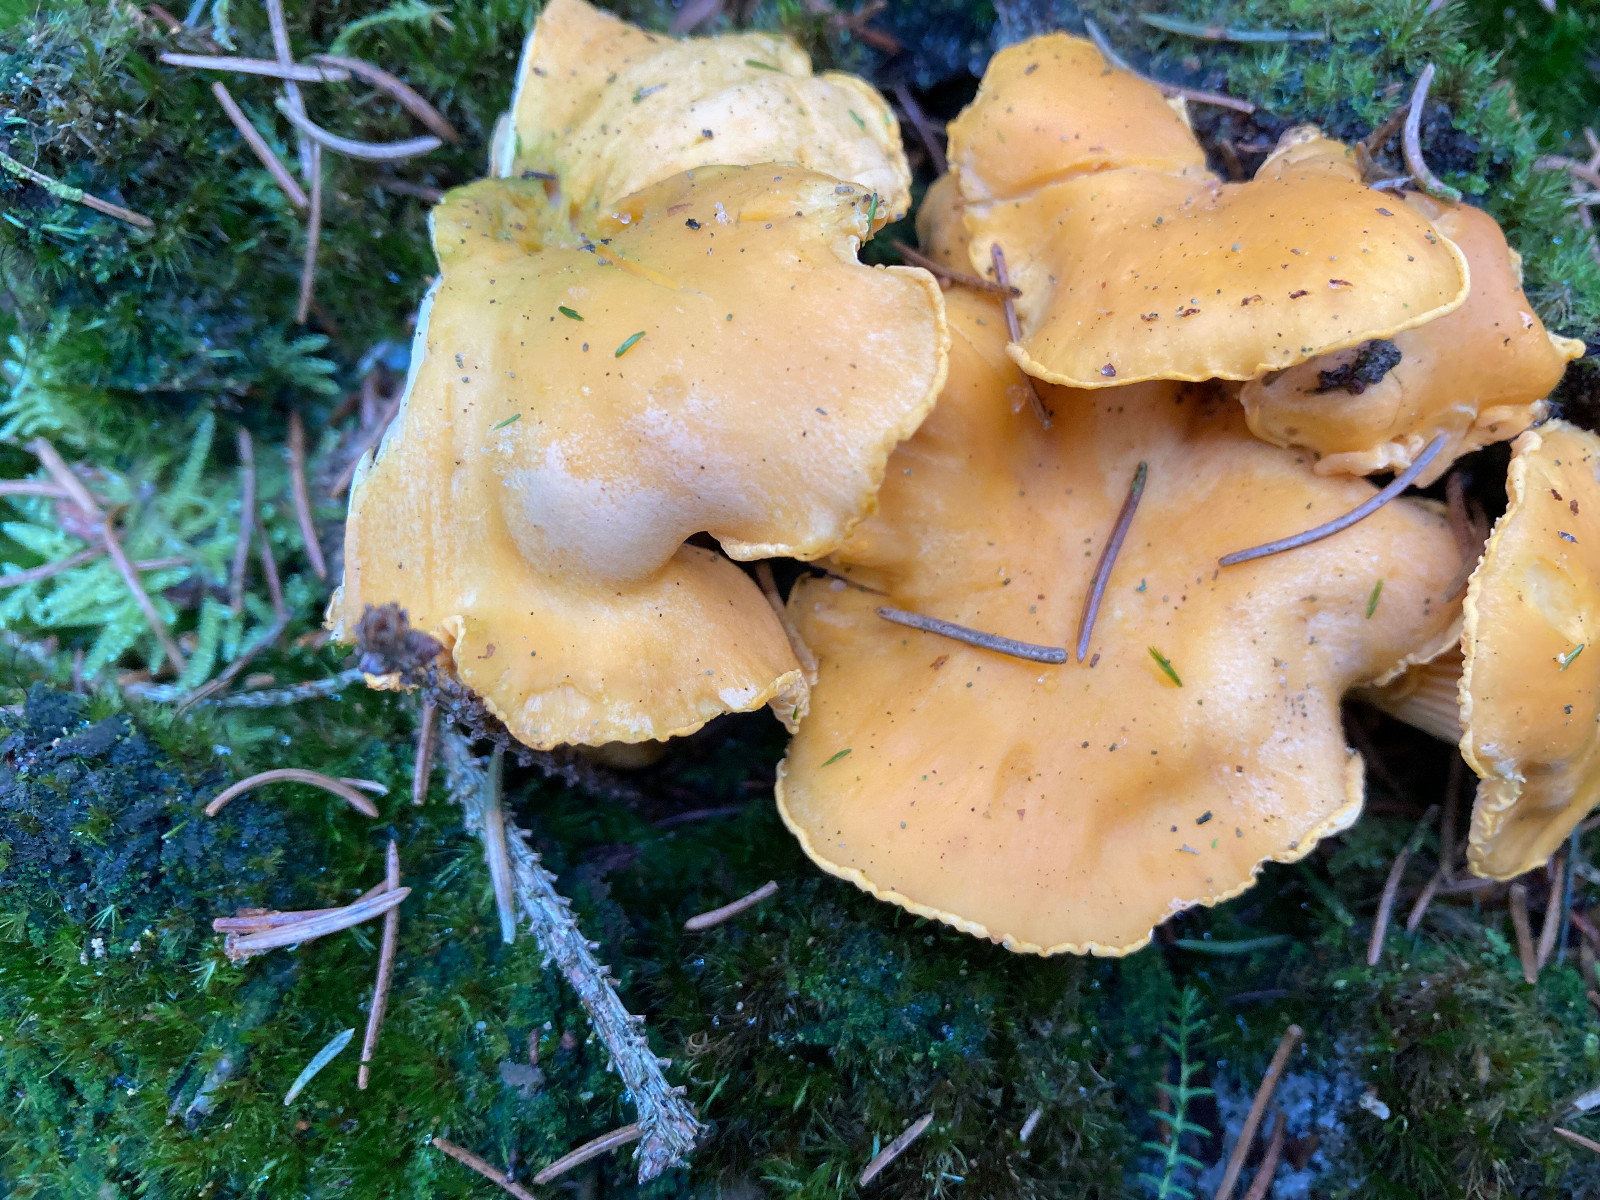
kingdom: Fungi
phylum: Basidiomycota
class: Agaricomycetes
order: Cantharellales
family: Hydnaceae
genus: Cantharellus
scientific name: Cantharellus cibarius
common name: almindelig kantarel
